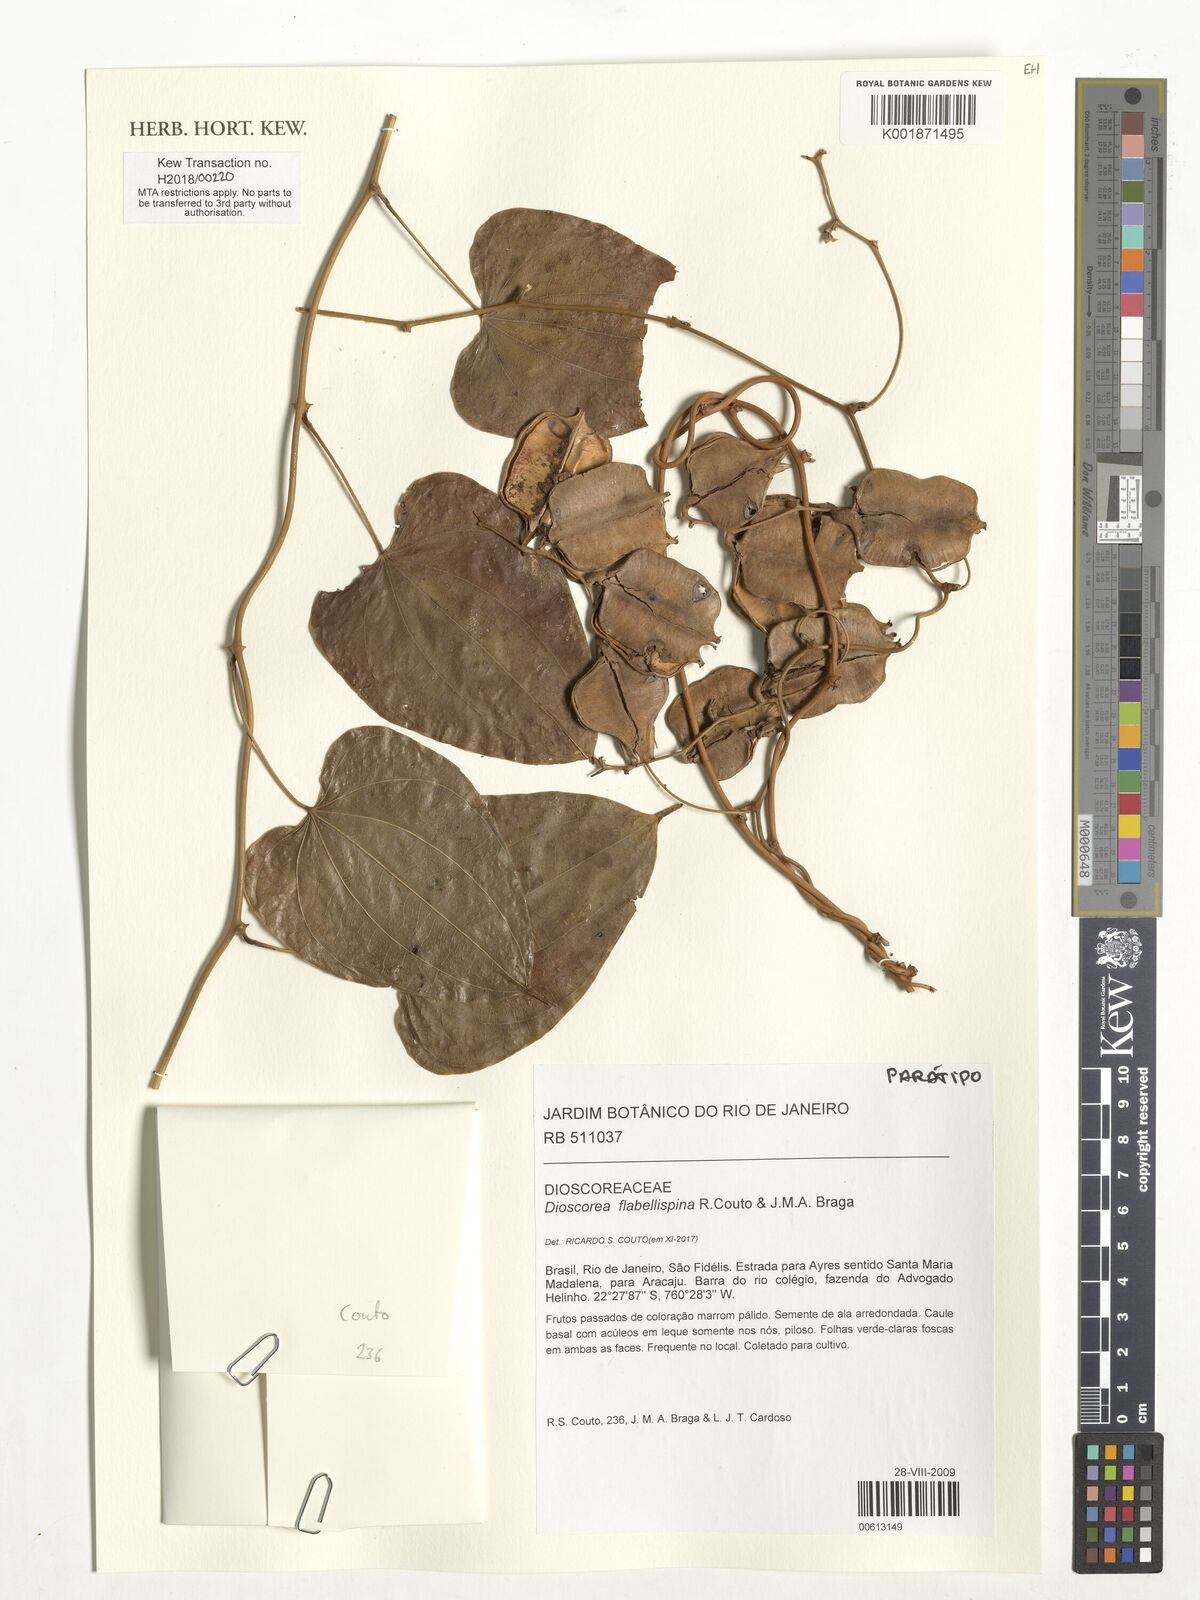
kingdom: Plantae
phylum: Tracheophyta
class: Liliopsida
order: Dioscoreales
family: Dioscoreaceae
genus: Dioscorea
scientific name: Dioscorea flabellispina
